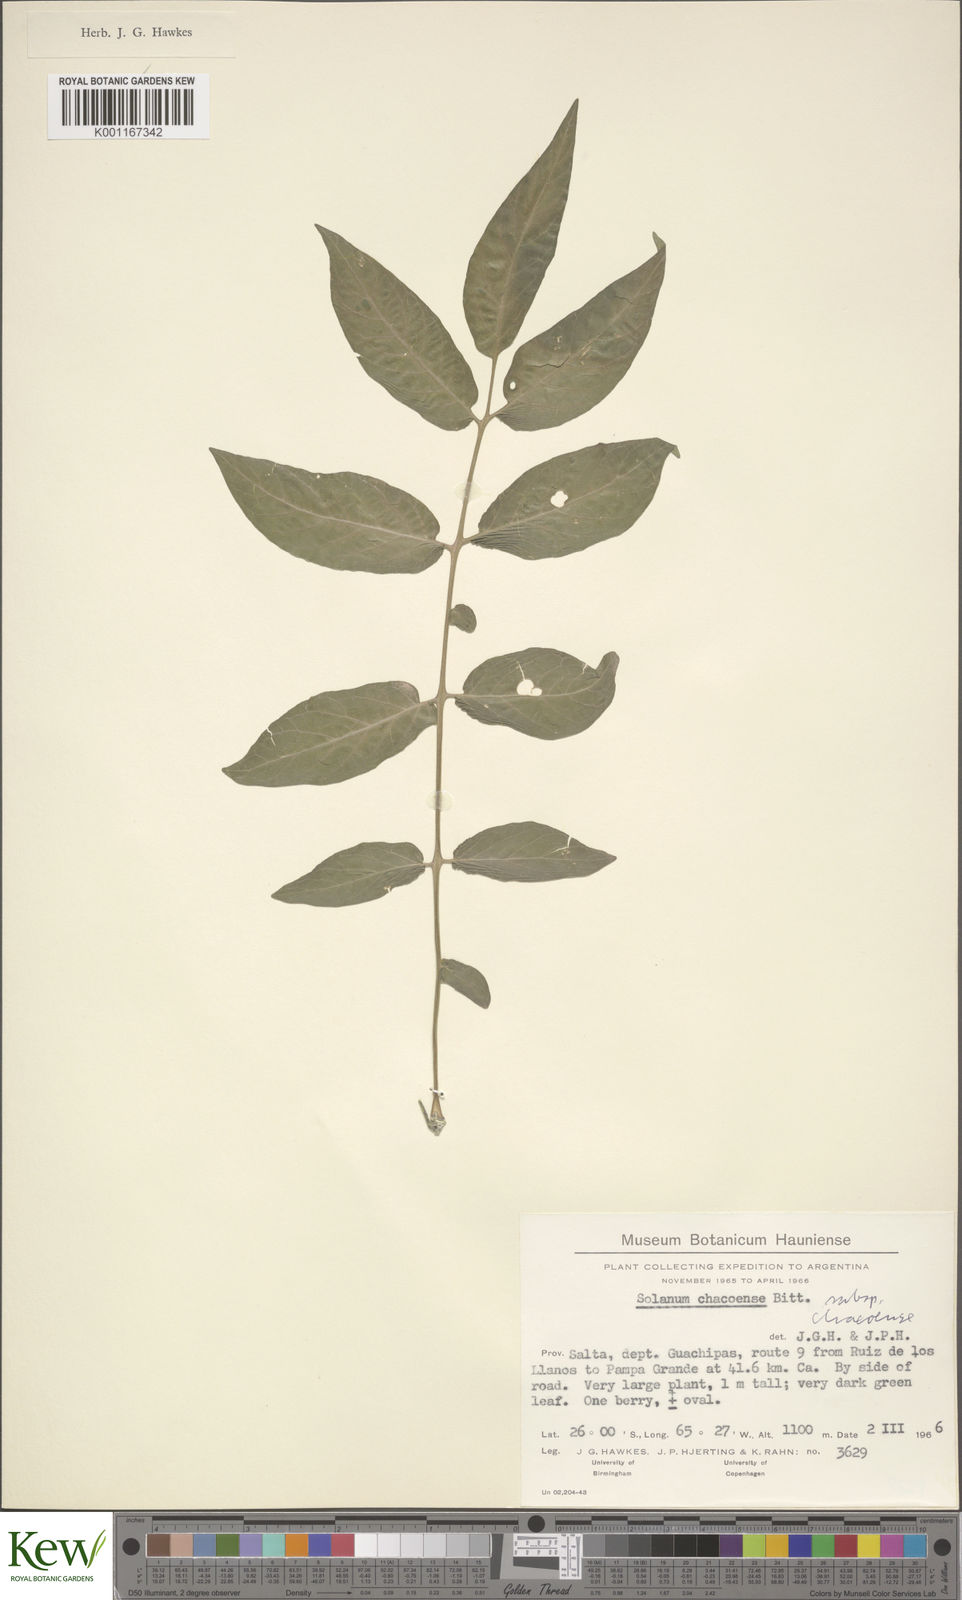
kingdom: Plantae
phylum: Tracheophyta
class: Magnoliopsida
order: Solanales
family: Solanaceae
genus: Solanum
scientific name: Solanum chacoense
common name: Chaco potato
